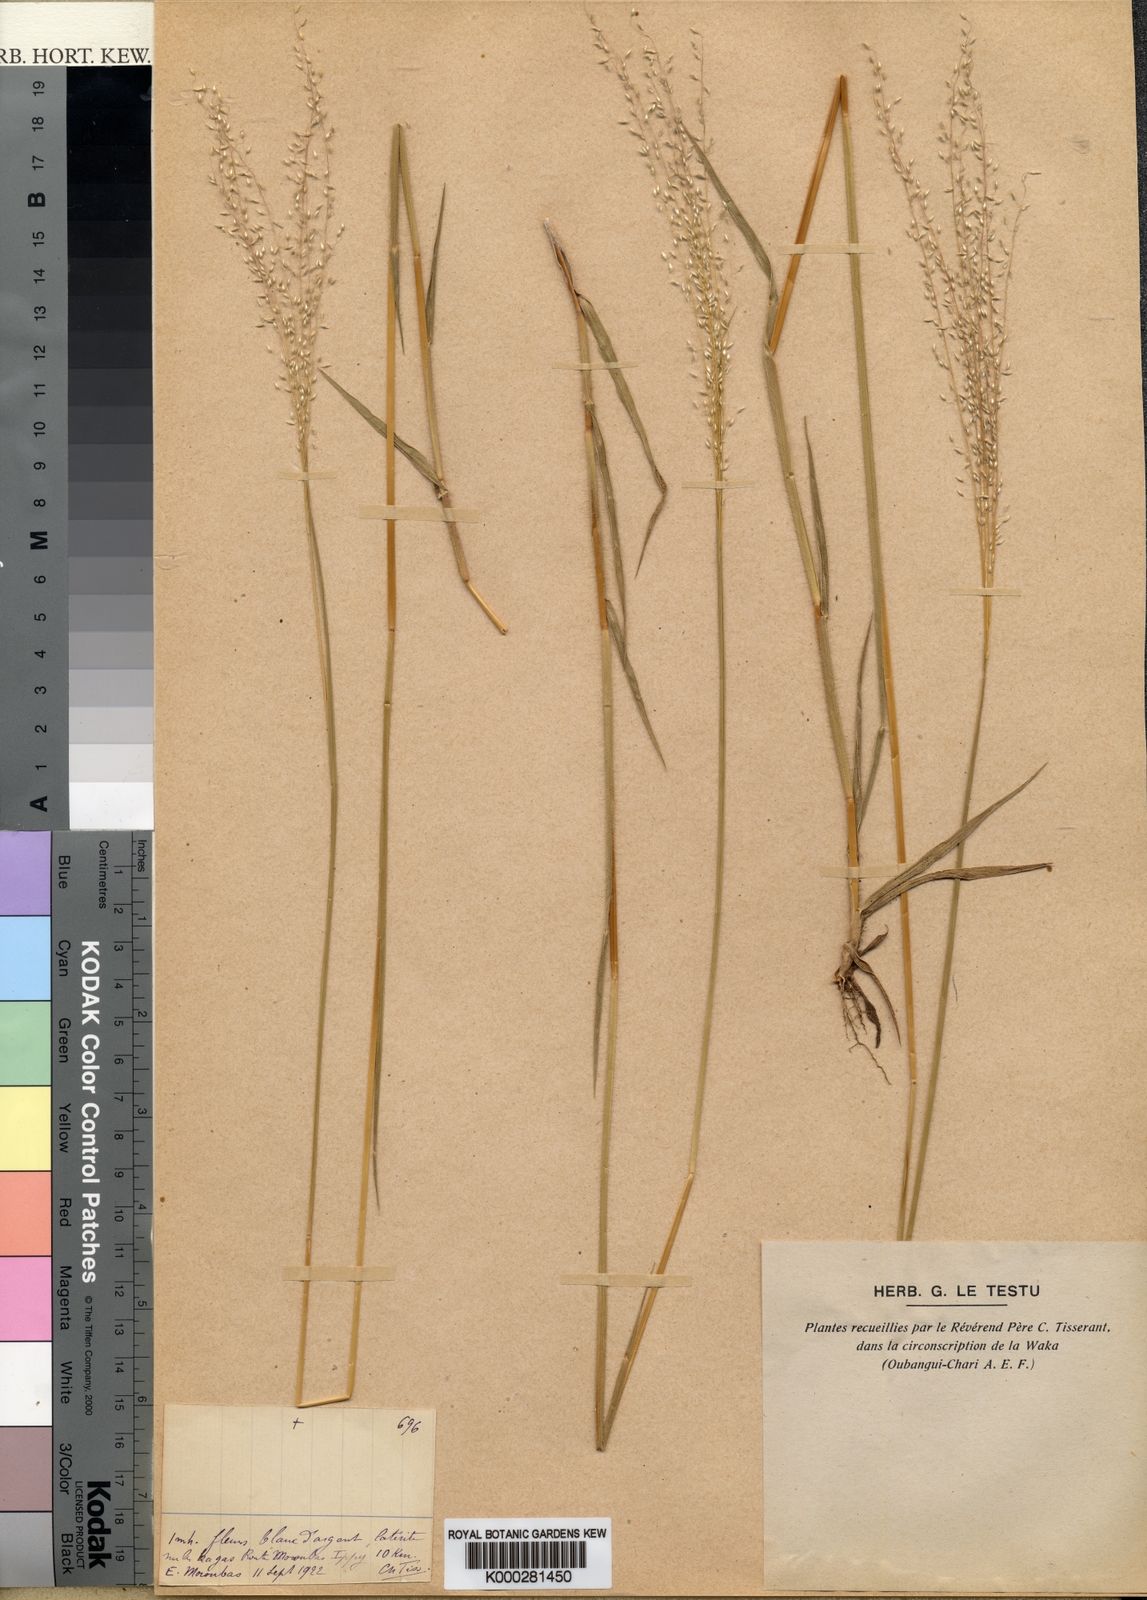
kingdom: Plantae
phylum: Tracheophyta
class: Liliopsida
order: Poales
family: Poaceae
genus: Digitaria
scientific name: Digitaria
